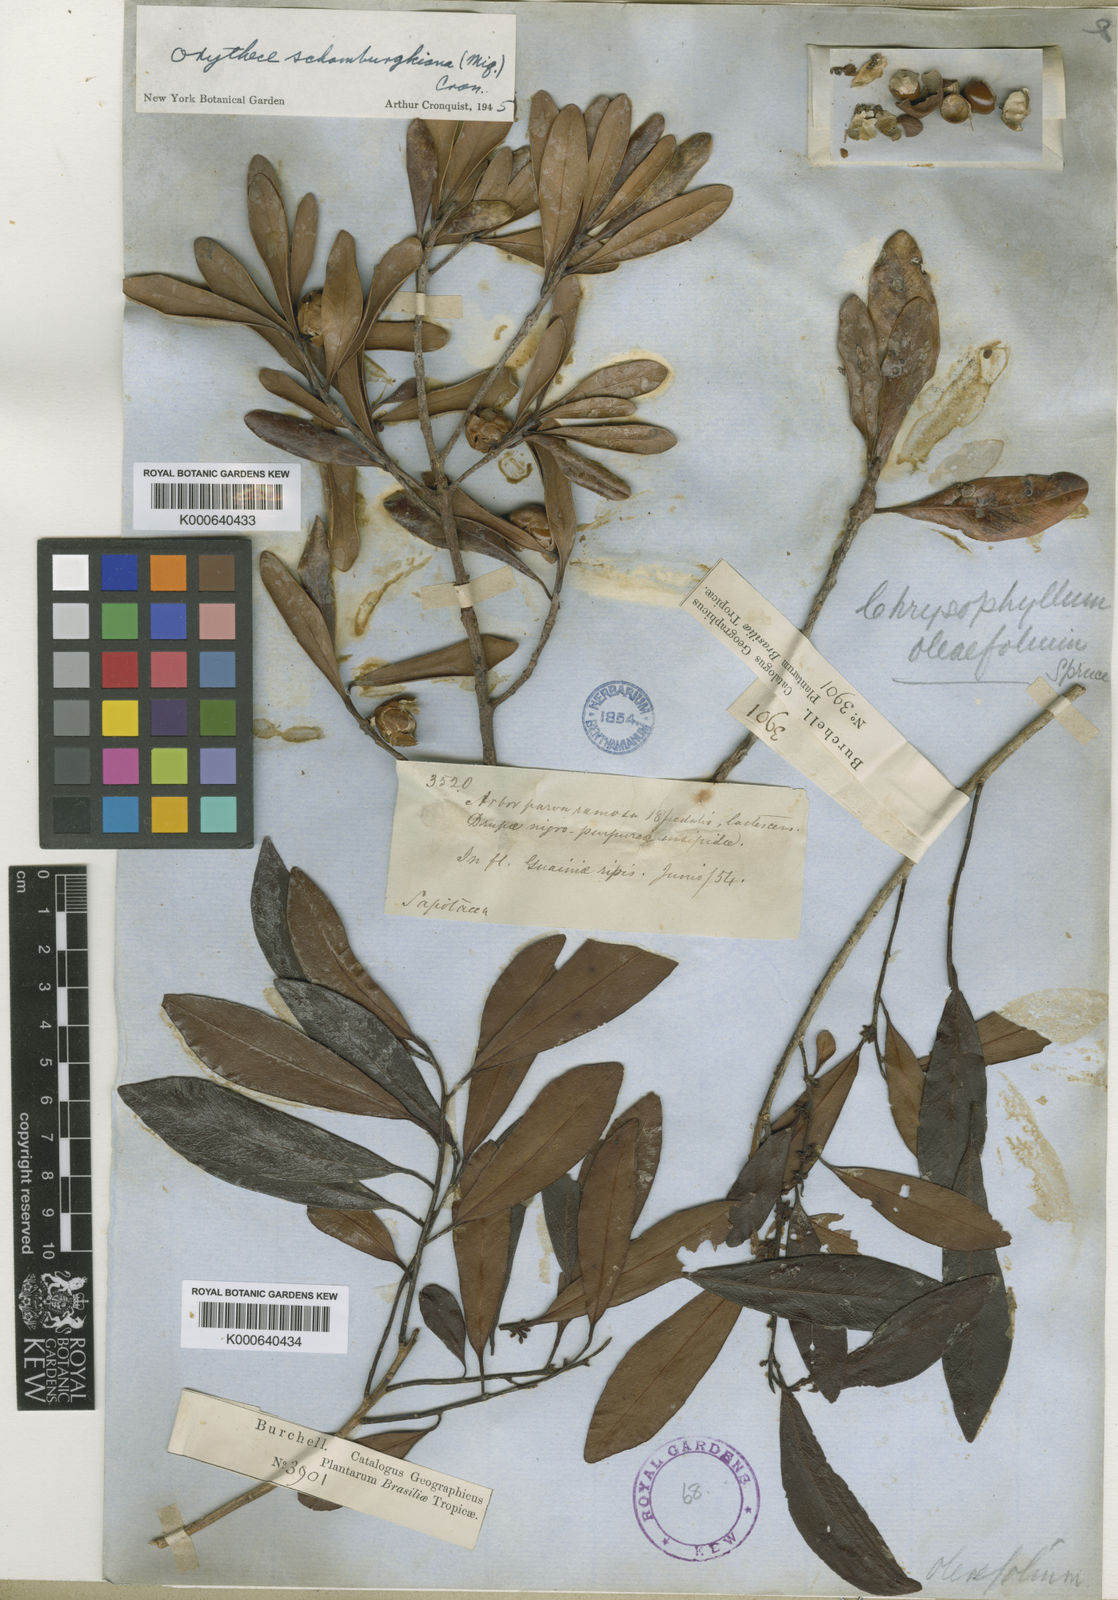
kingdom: Plantae
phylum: Tracheophyta
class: Magnoliopsida
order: Ericales
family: Sapotaceae
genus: Elaeoluma
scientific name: Elaeoluma schomburgkiana
